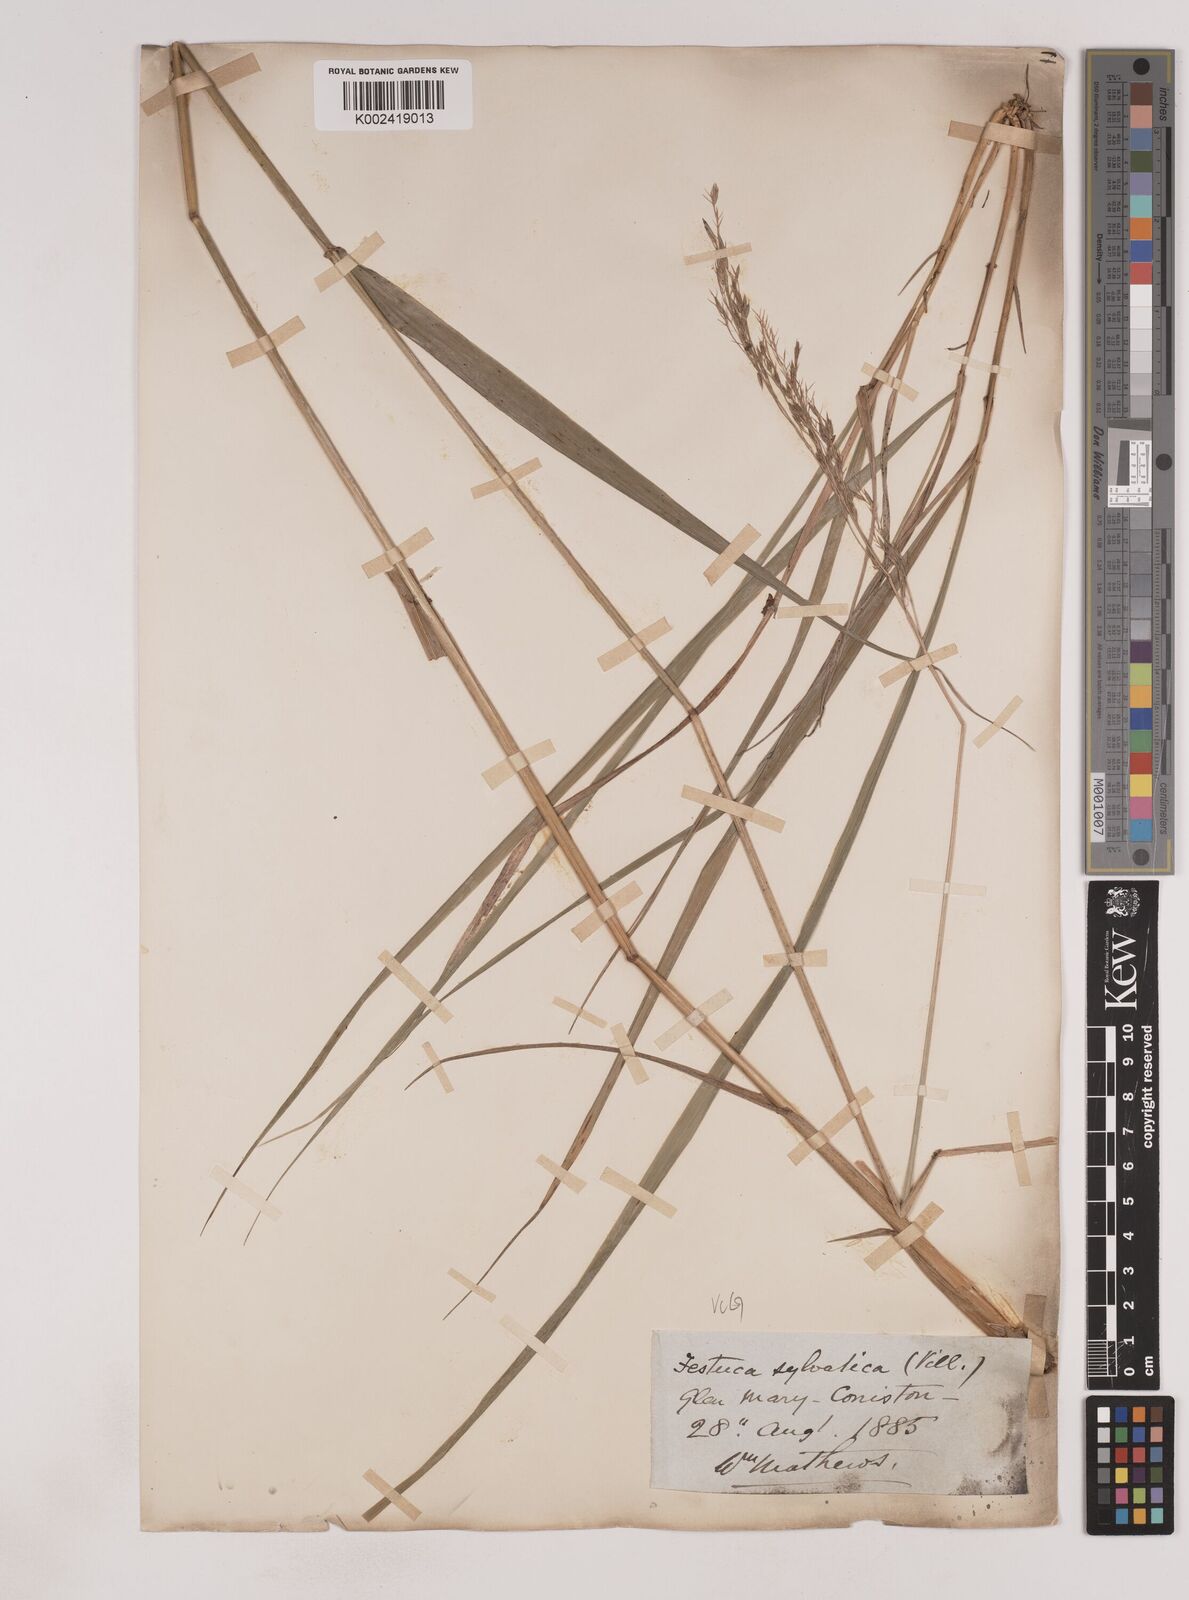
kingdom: Plantae
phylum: Tracheophyta
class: Liliopsida
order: Poales
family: Poaceae
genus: Festuca
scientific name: Festuca drymeja
